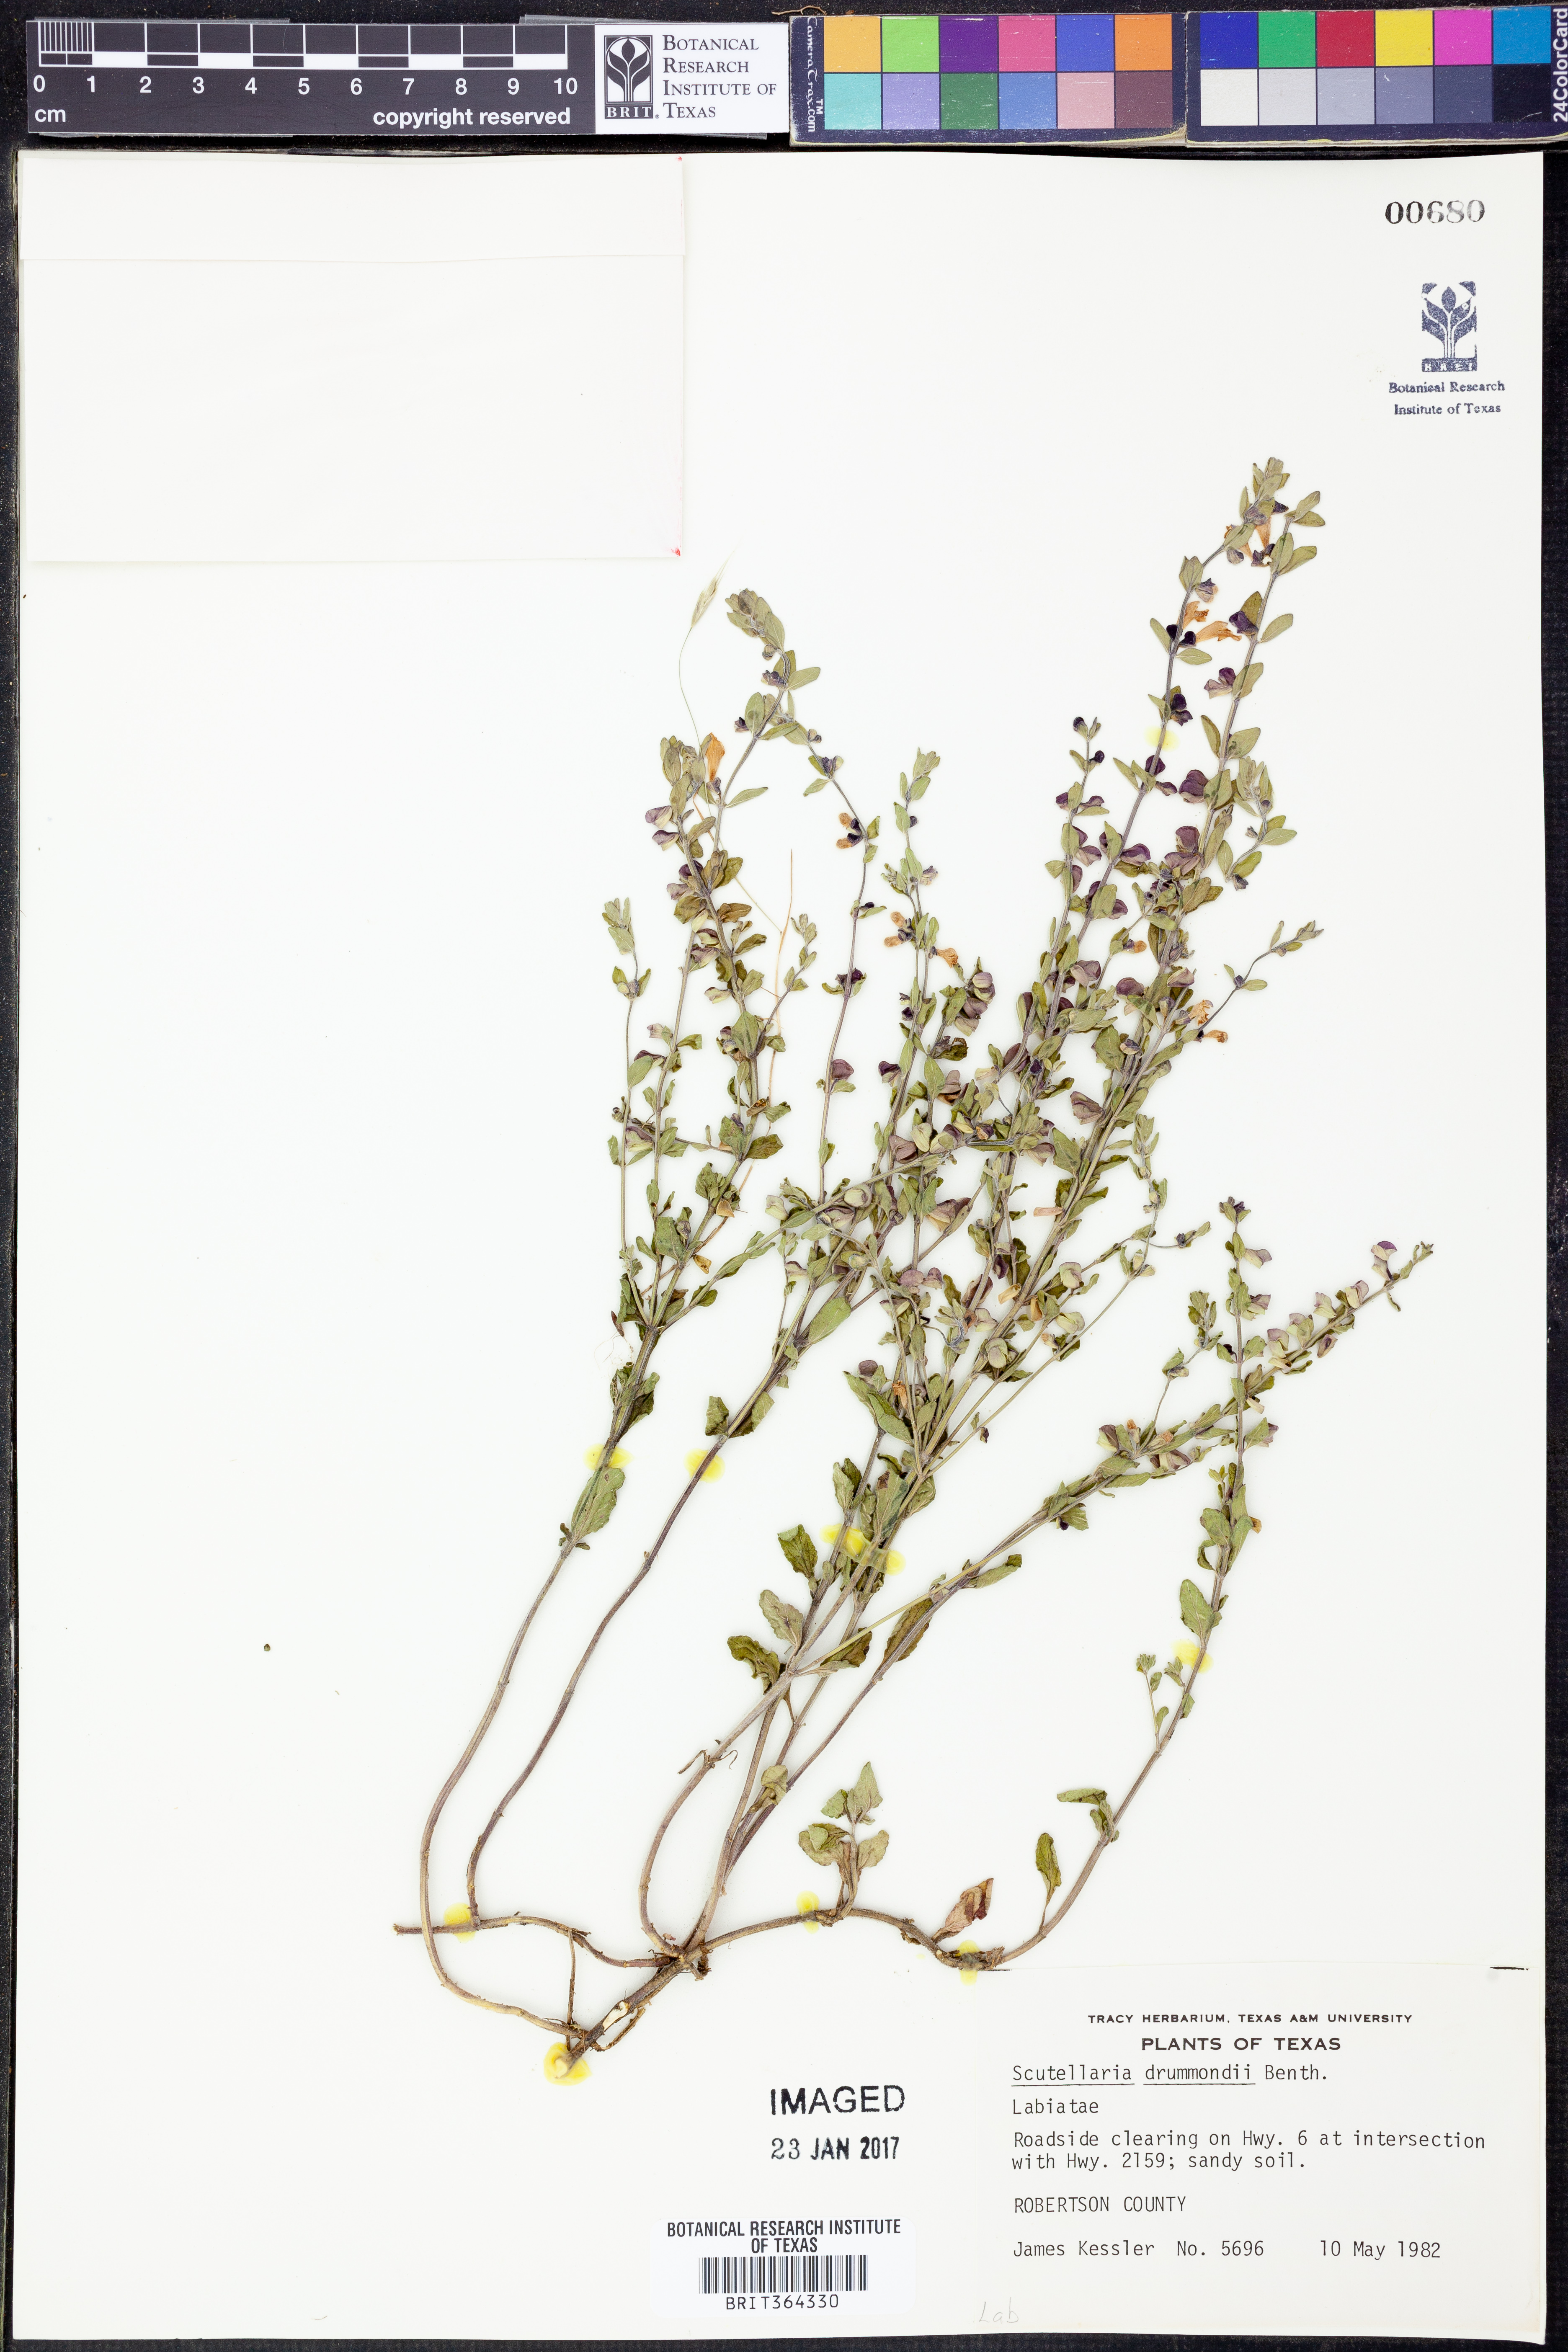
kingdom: Plantae
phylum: Tracheophyta
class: Magnoliopsida
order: Lamiales
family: Lamiaceae
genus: Scutellaria
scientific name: Scutellaria drummondii
